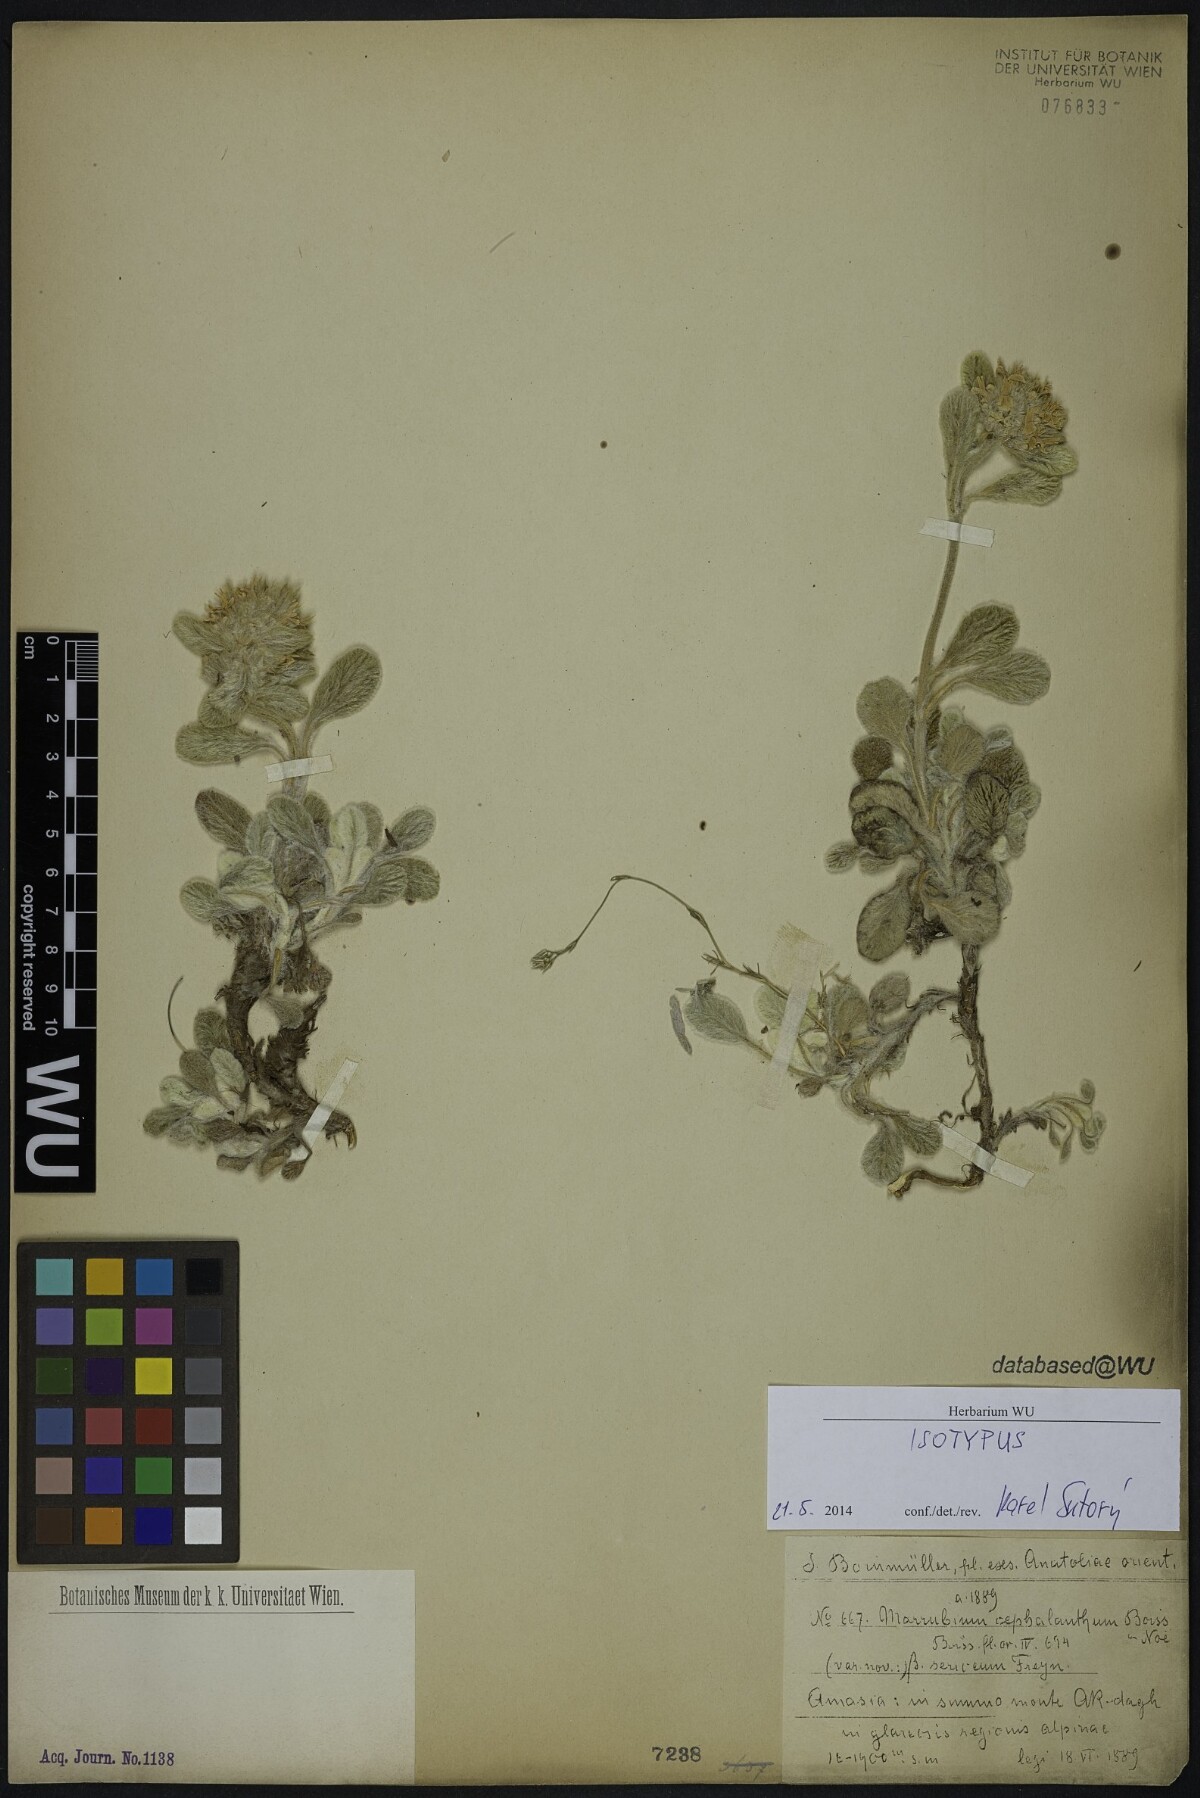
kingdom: Plantae
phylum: Tracheophyta
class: Magnoliopsida
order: Lamiales
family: Lamiaceae
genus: Marrubium
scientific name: Marrubium cephalanthum
